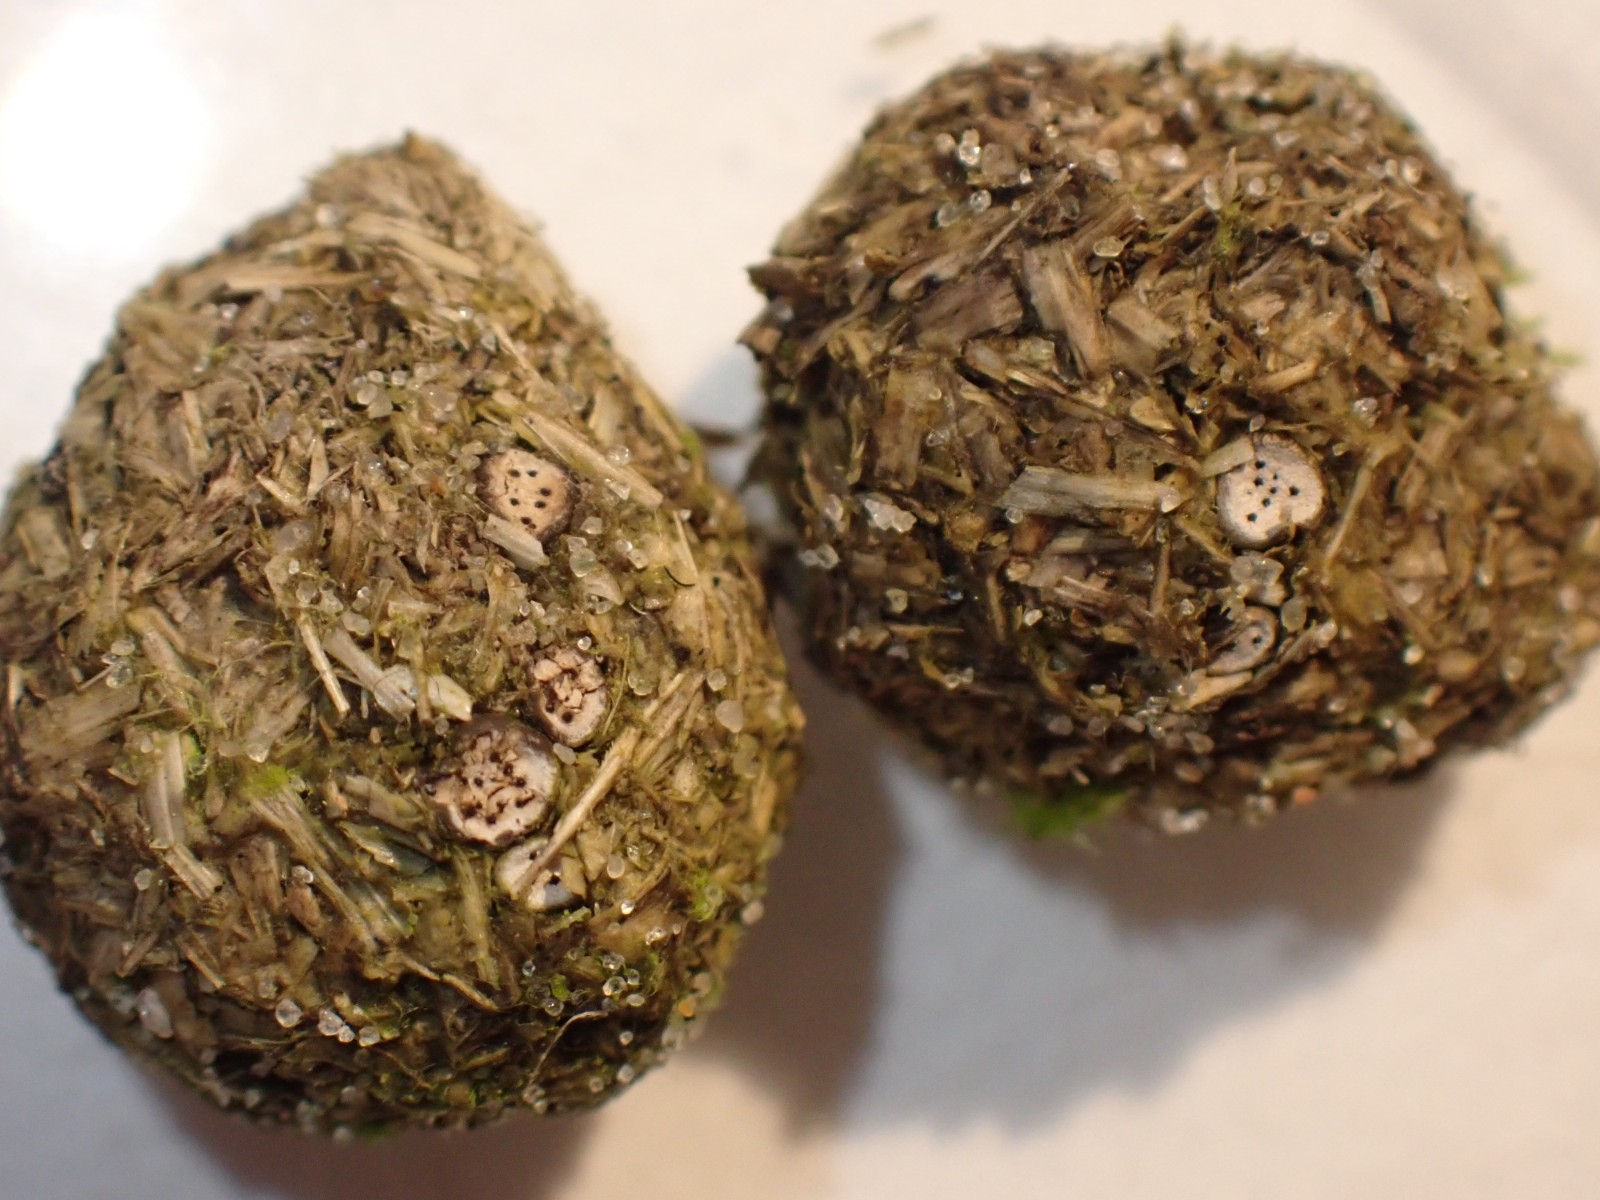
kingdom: Fungi
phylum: Ascomycota
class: Sordariomycetes
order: Xylariales
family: Xylariaceae
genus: Poronia
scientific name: Poronia erici
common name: hare-priksvamp
